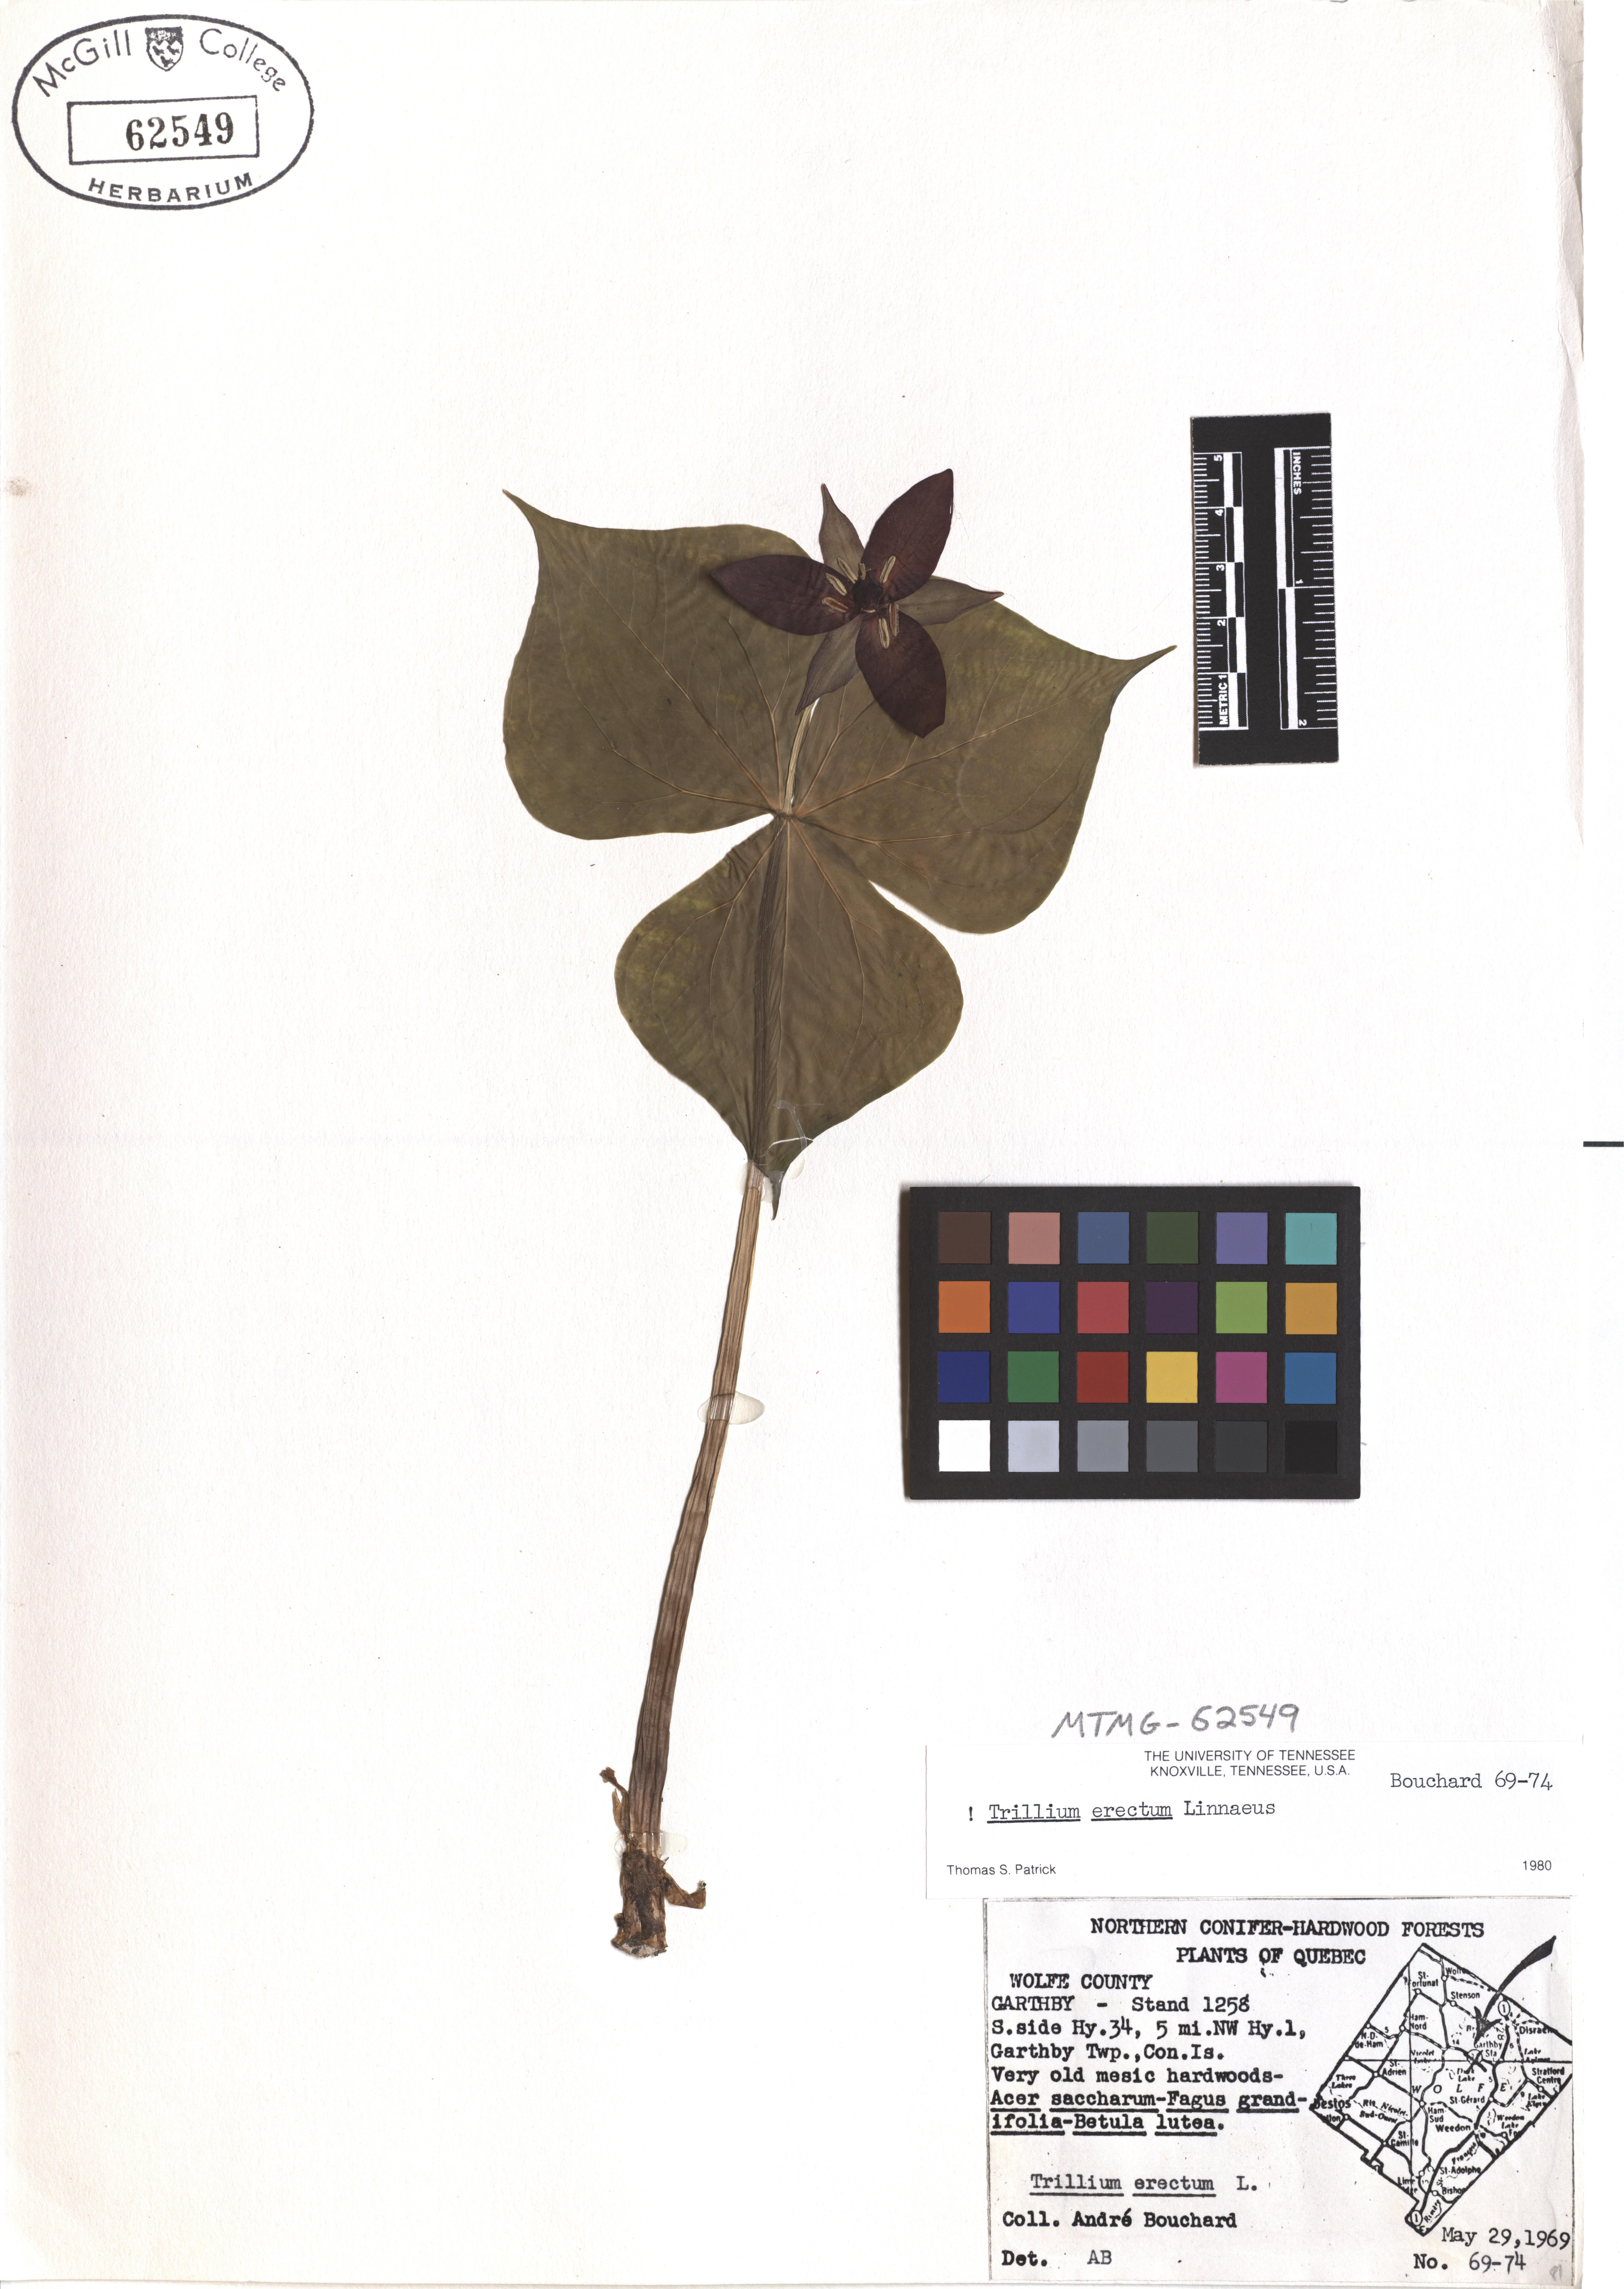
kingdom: Plantae
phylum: Tracheophyta
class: Liliopsida
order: Liliales
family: Melanthiaceae
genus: Trillium
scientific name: Trillium erectum
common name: Purple trillium
